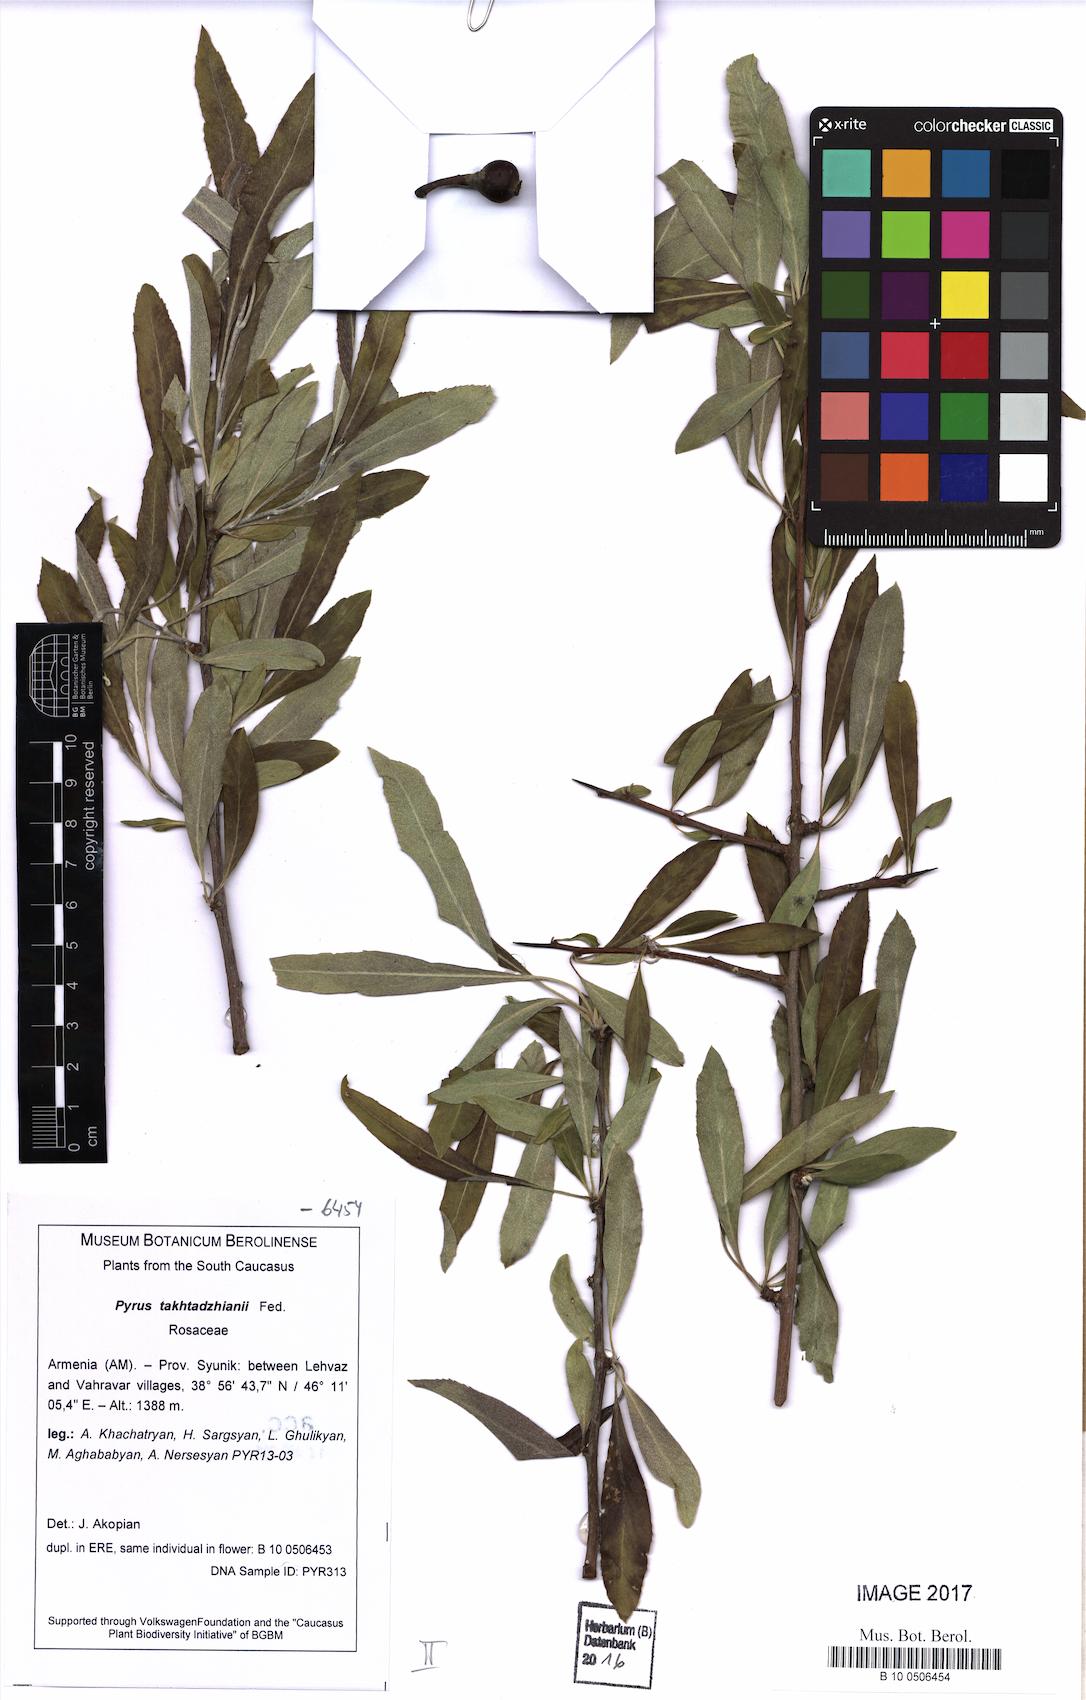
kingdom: Plantae
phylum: Tracheophyta
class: Magnoliopsida
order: Rosales
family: Rosaceae
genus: Pyrus
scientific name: Pyrus takhtadzhianii
